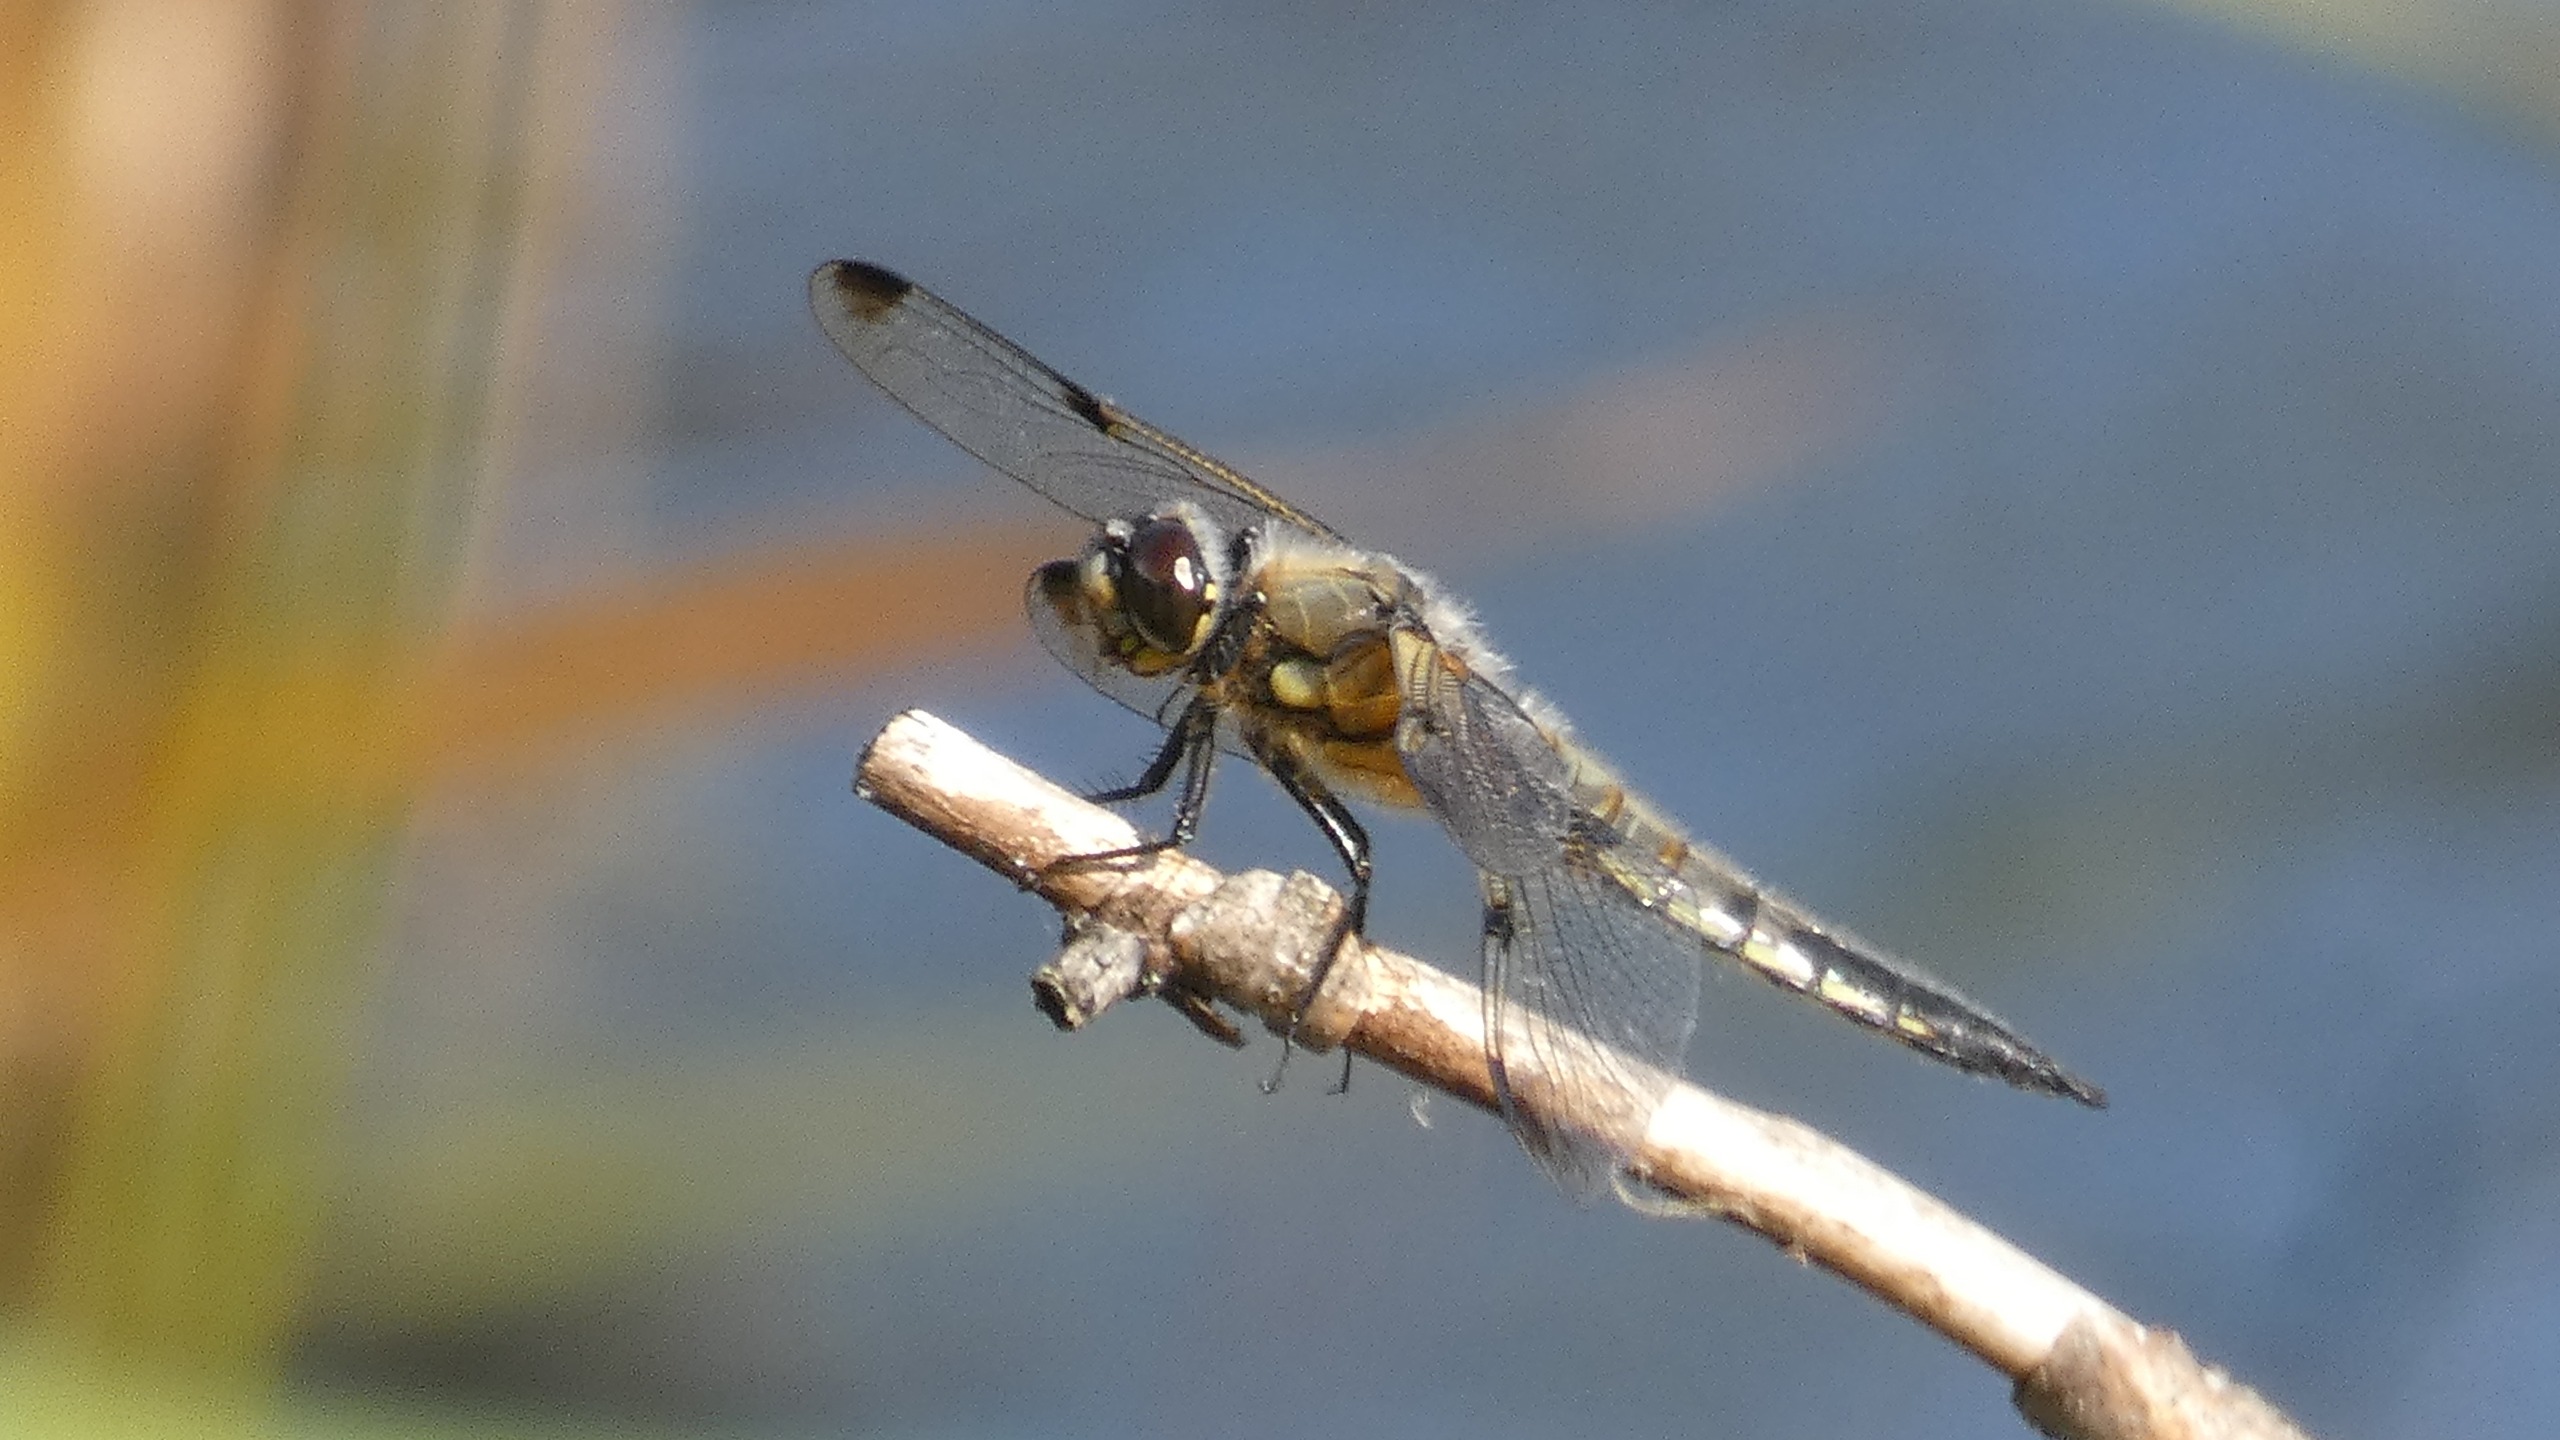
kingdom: Animalia
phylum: Arthropoda
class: Insecta
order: Odonata
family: Libellulidae
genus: Libellula
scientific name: Libellula quadrimaculata
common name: Fireplettet libel
